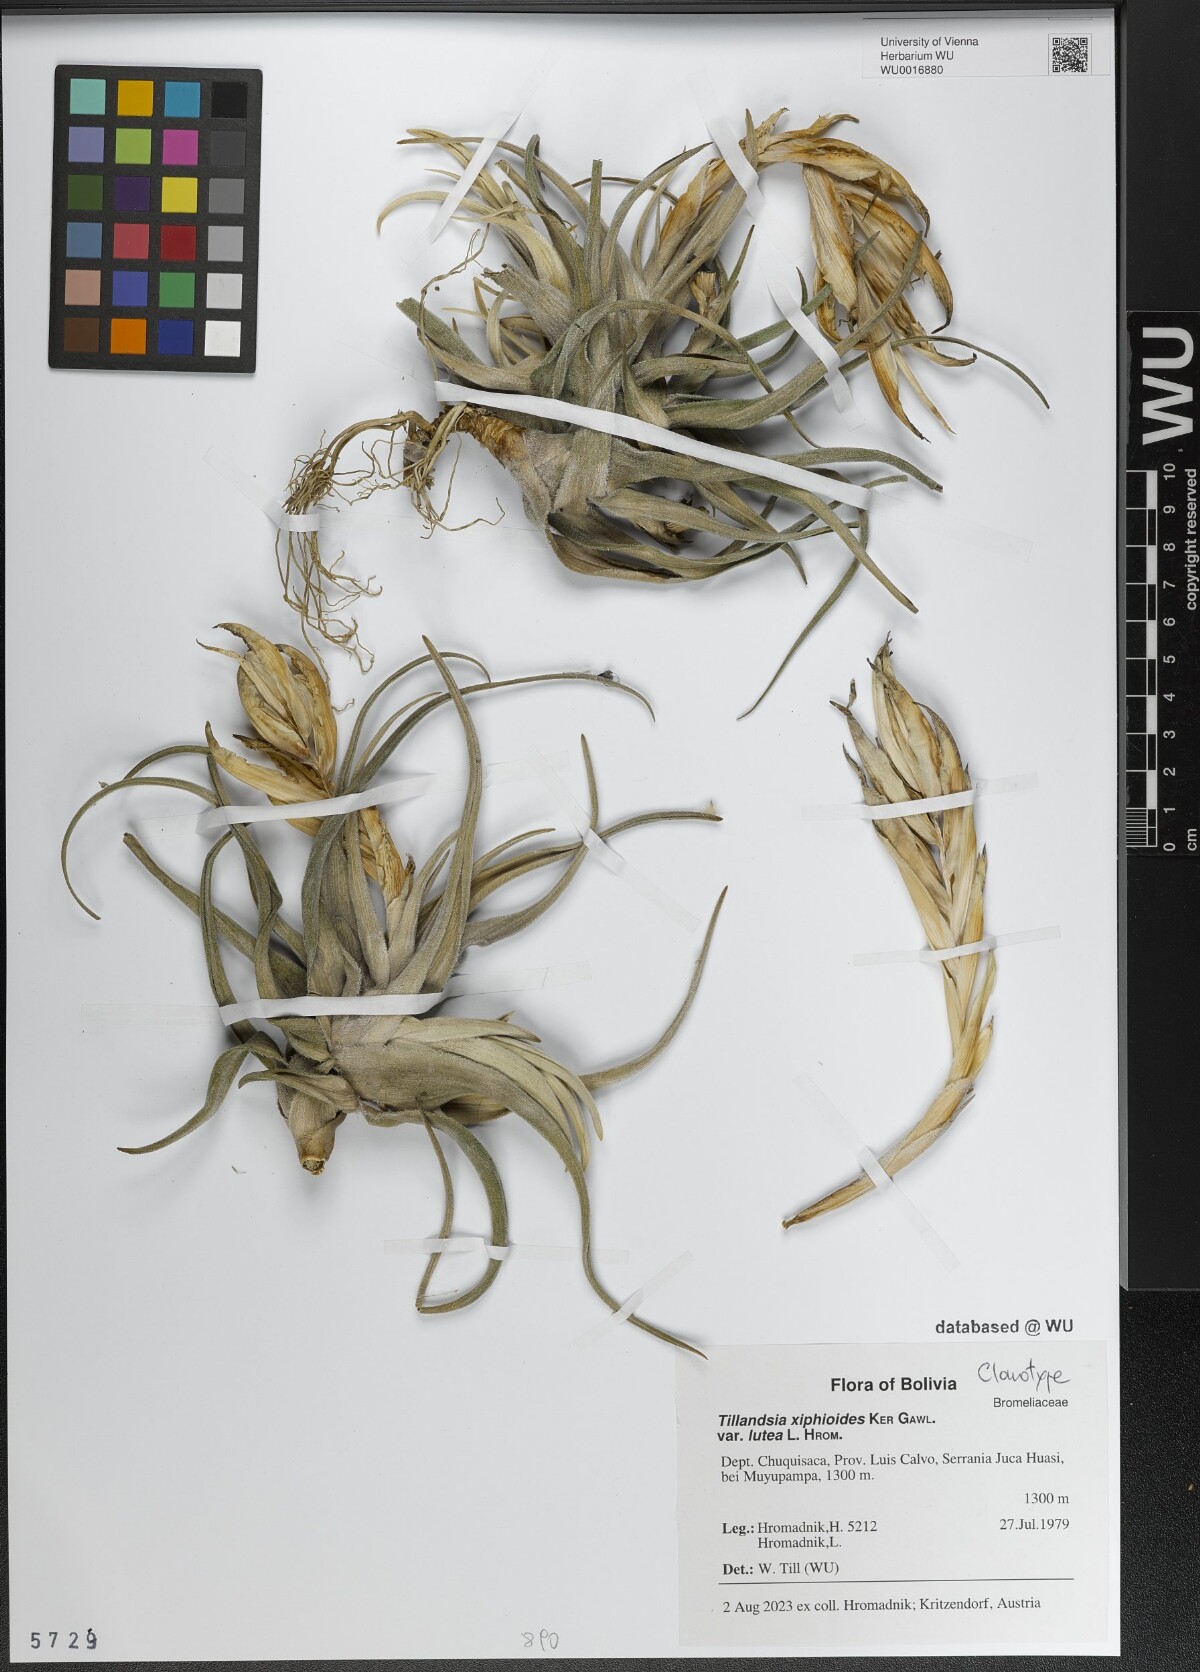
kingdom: Plantae
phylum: Tracheophyta
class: Liliopsida
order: Poales
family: Bromeliaceae
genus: Tillandsia
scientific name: Tillandsia xiphioides
